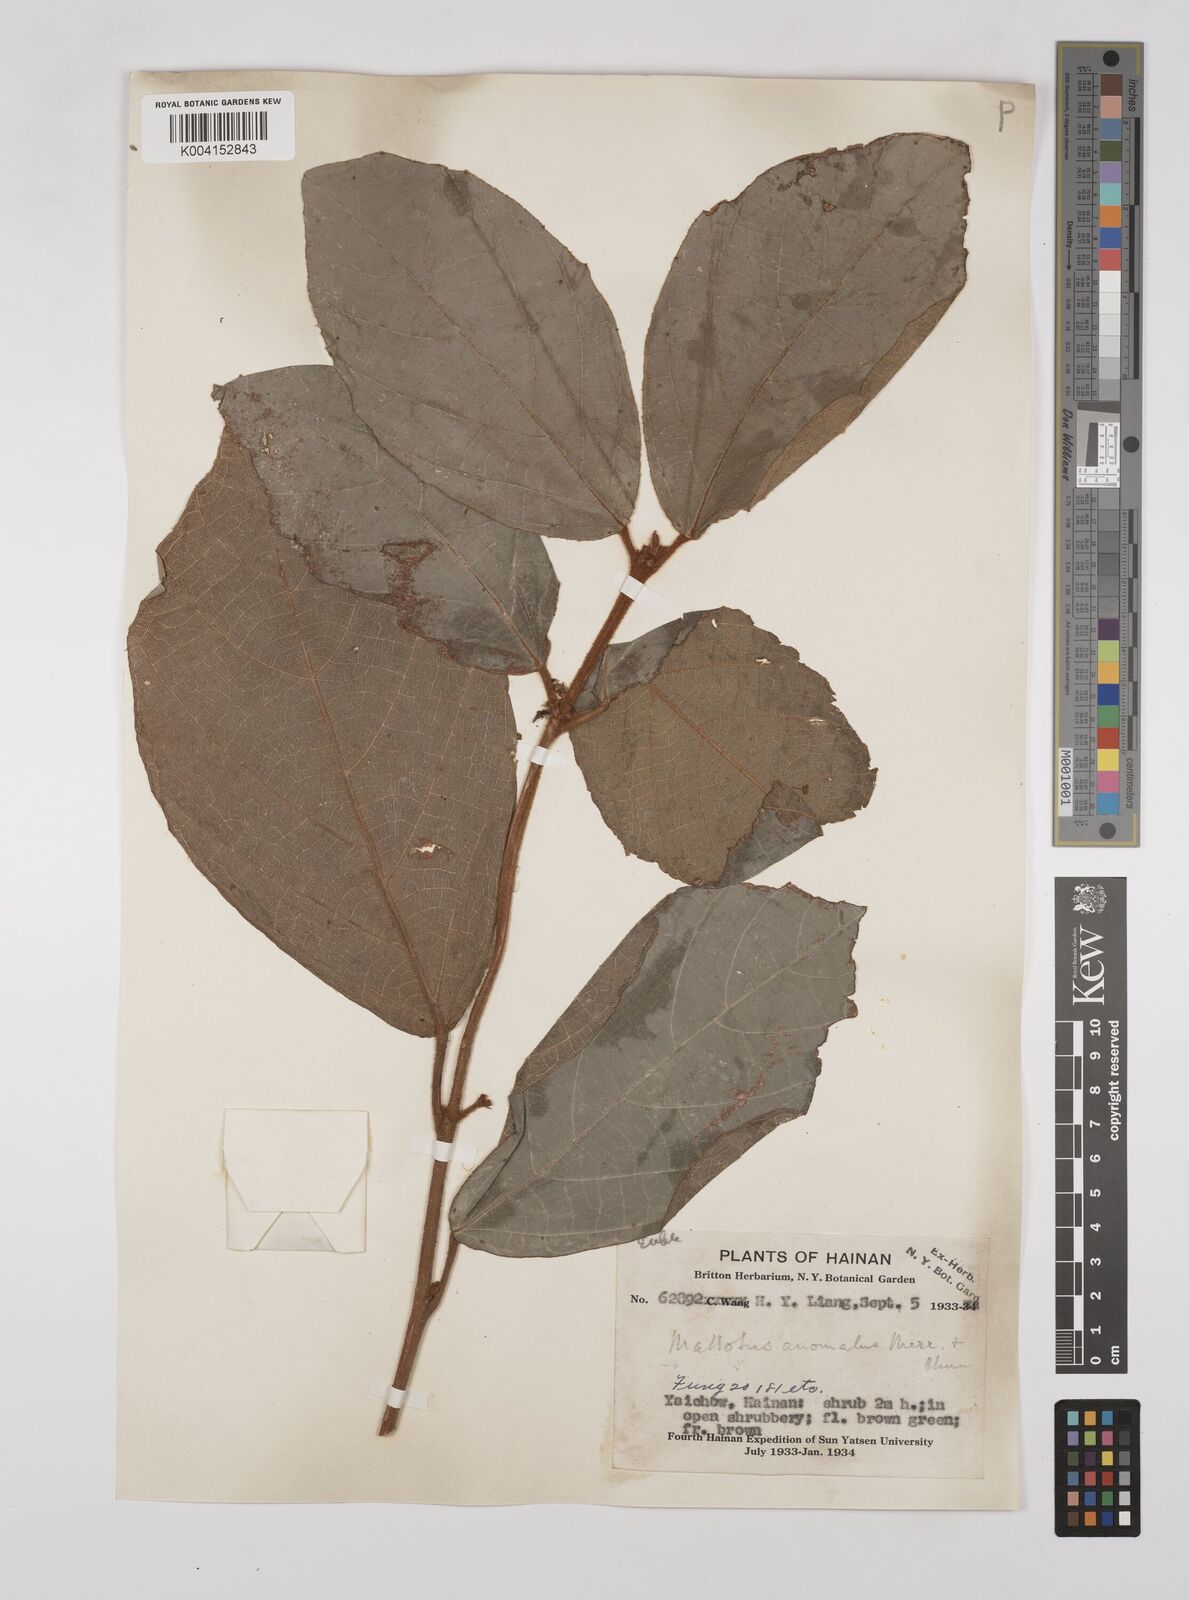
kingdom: Plantae
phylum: Tracheophyta
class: Magnoliopsida
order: Malpighiales
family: Euphorbiaceae
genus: Mallotus
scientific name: Mallotus anomalus
